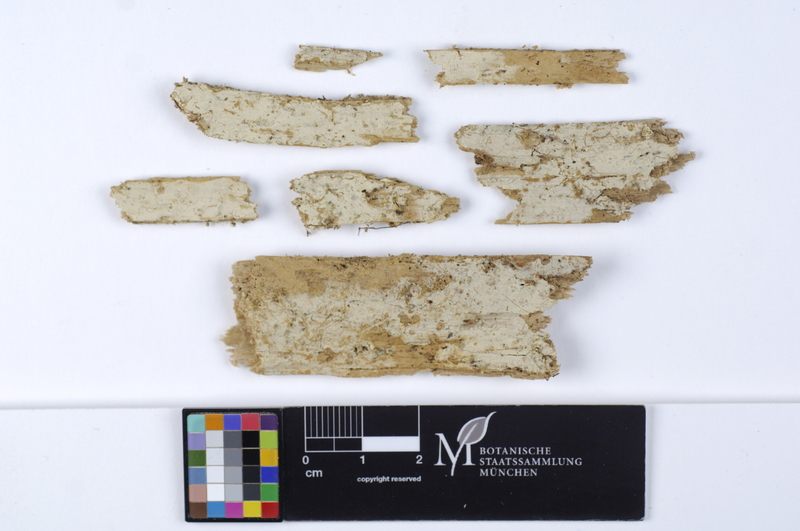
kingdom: Fungi
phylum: Basidiomycota
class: Agaricomycetes
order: Cantharellales
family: Botryobasidiaceae
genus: Botryobasidium
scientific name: Botryobasidium intertextum
